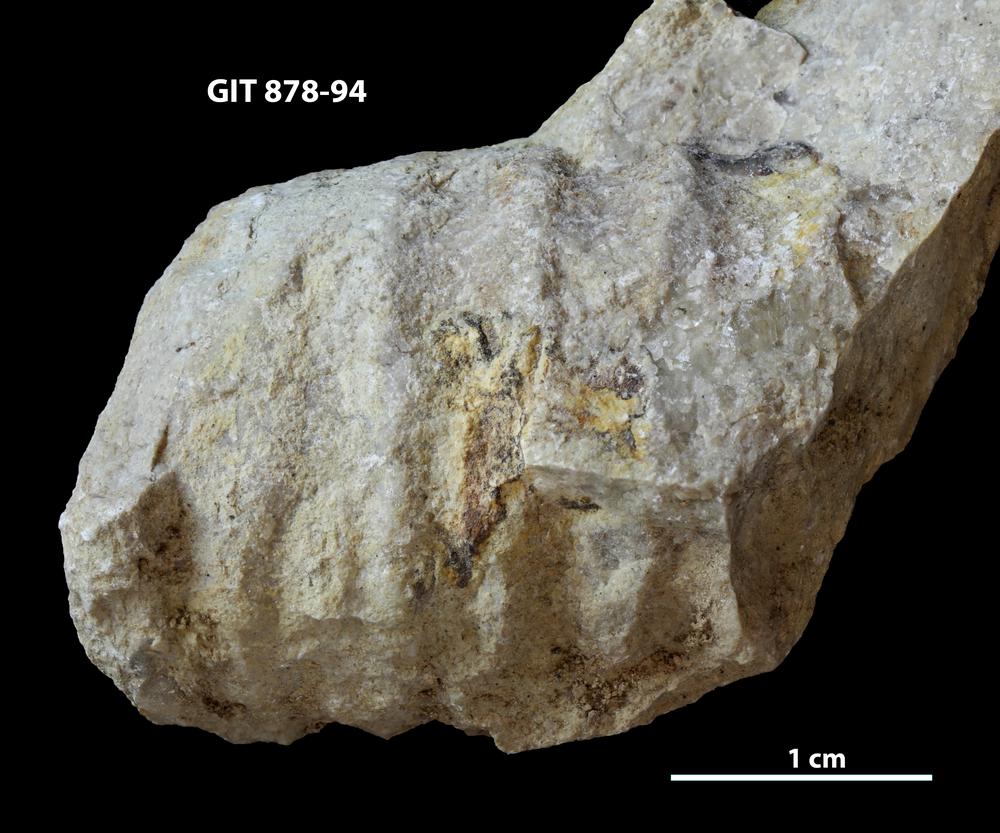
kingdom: Animalia
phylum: Mollusca
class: Cephalopoda
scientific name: Cephalopoda
